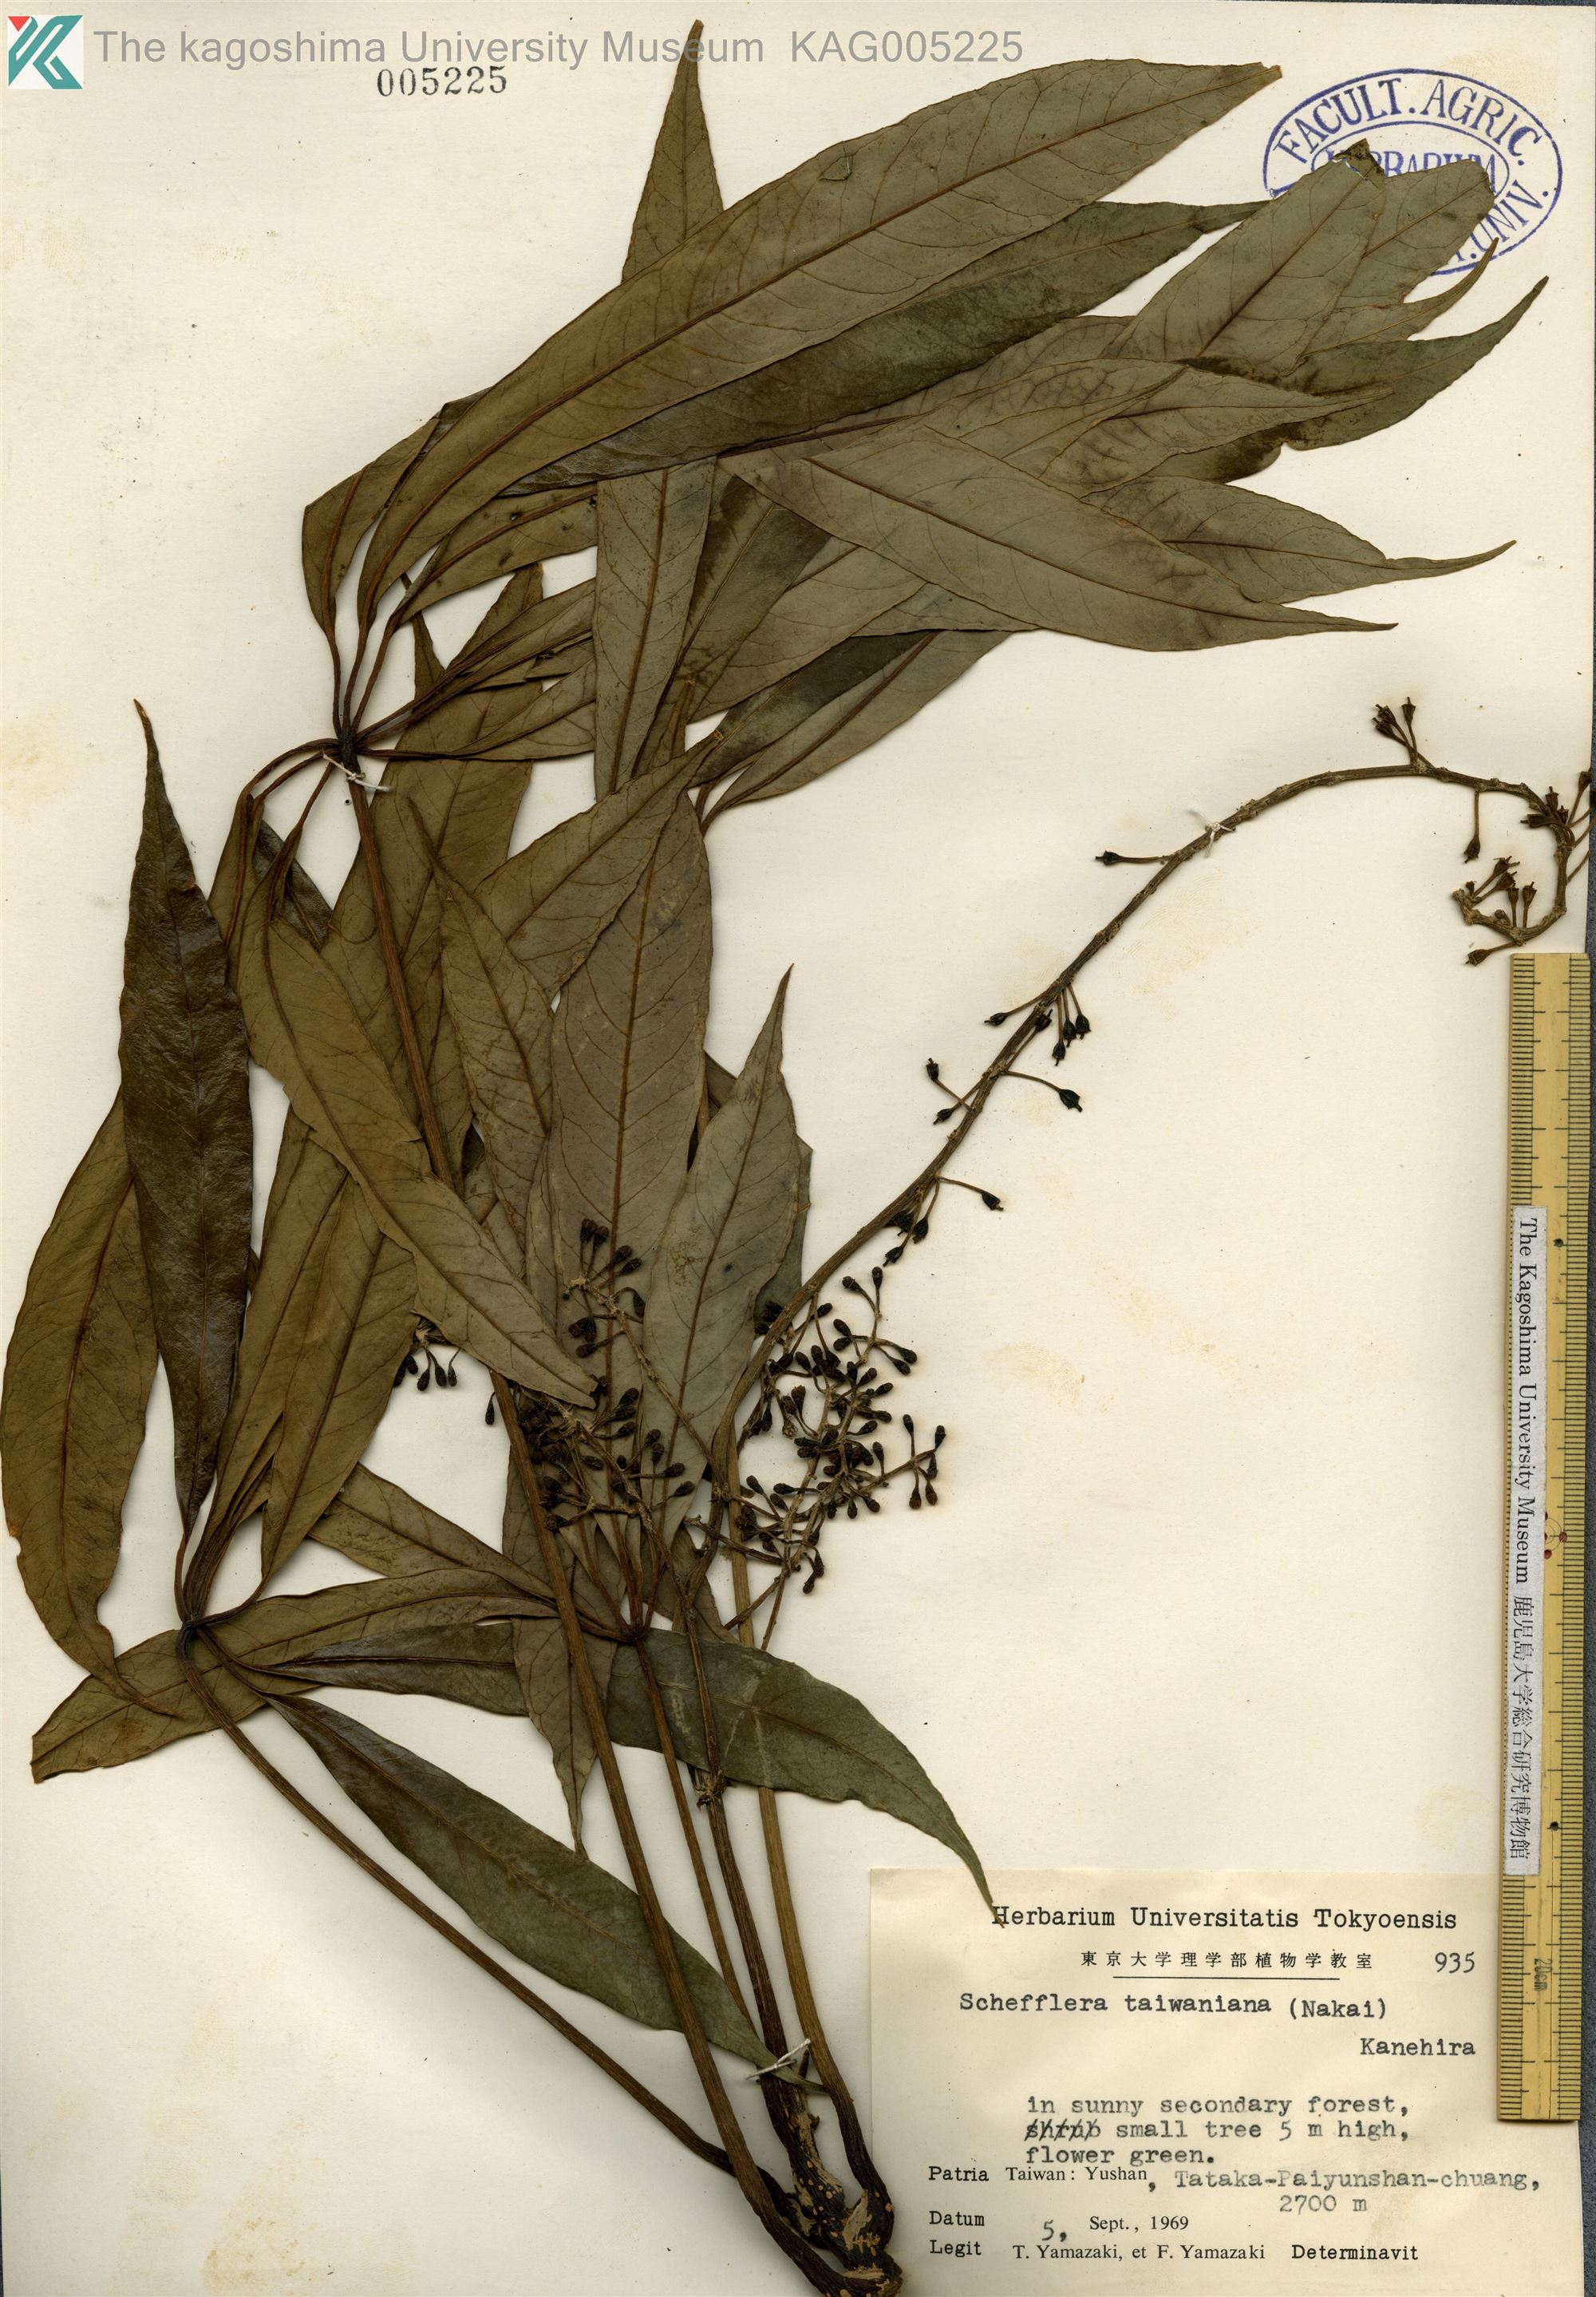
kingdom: Plantae
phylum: Tracheophyta
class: Magnoliopsida
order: Apiales
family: Araliaceae
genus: Heptapleurum
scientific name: Heptapleurum taiwanianum
